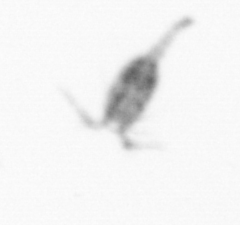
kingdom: Animalia
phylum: Arthropoda
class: Copepoda
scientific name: Copepoda
